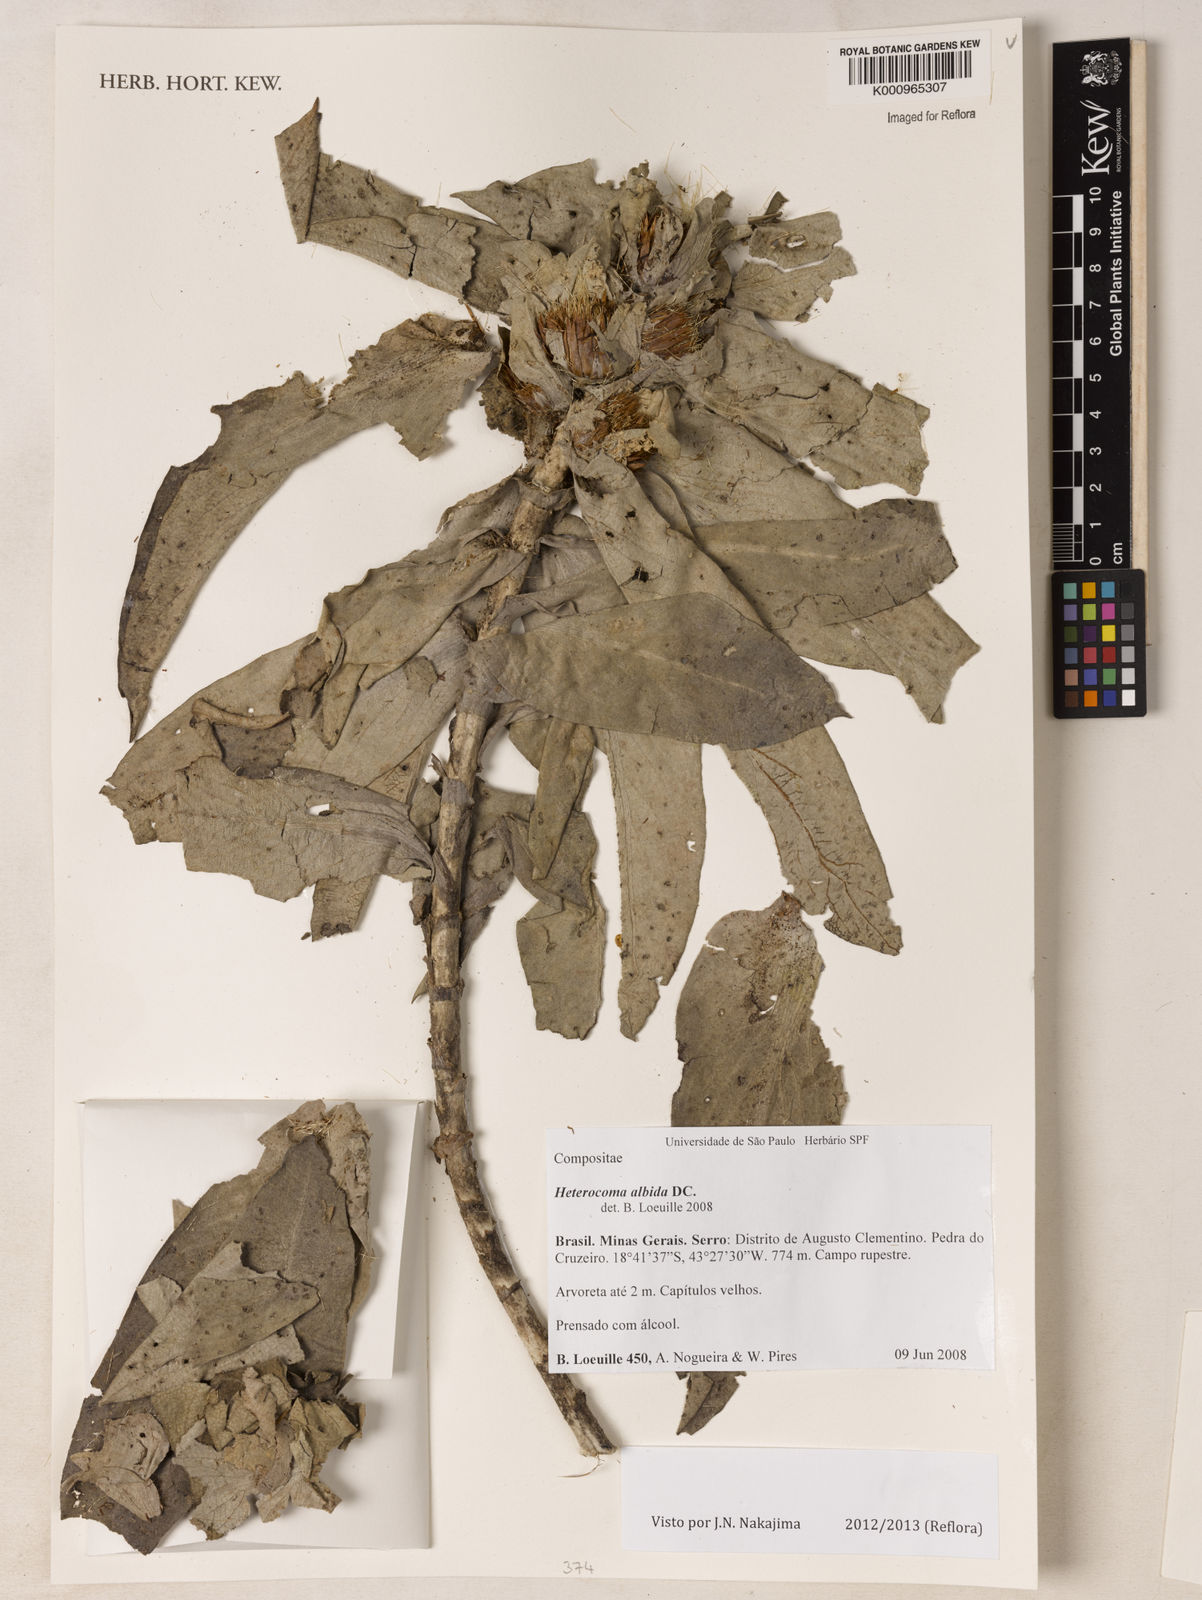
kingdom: Plantae
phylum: Tracheophyta
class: Magnoliopsida
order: Asterales
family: Asteraceae
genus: Heterocoma
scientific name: Heterocoma albida
